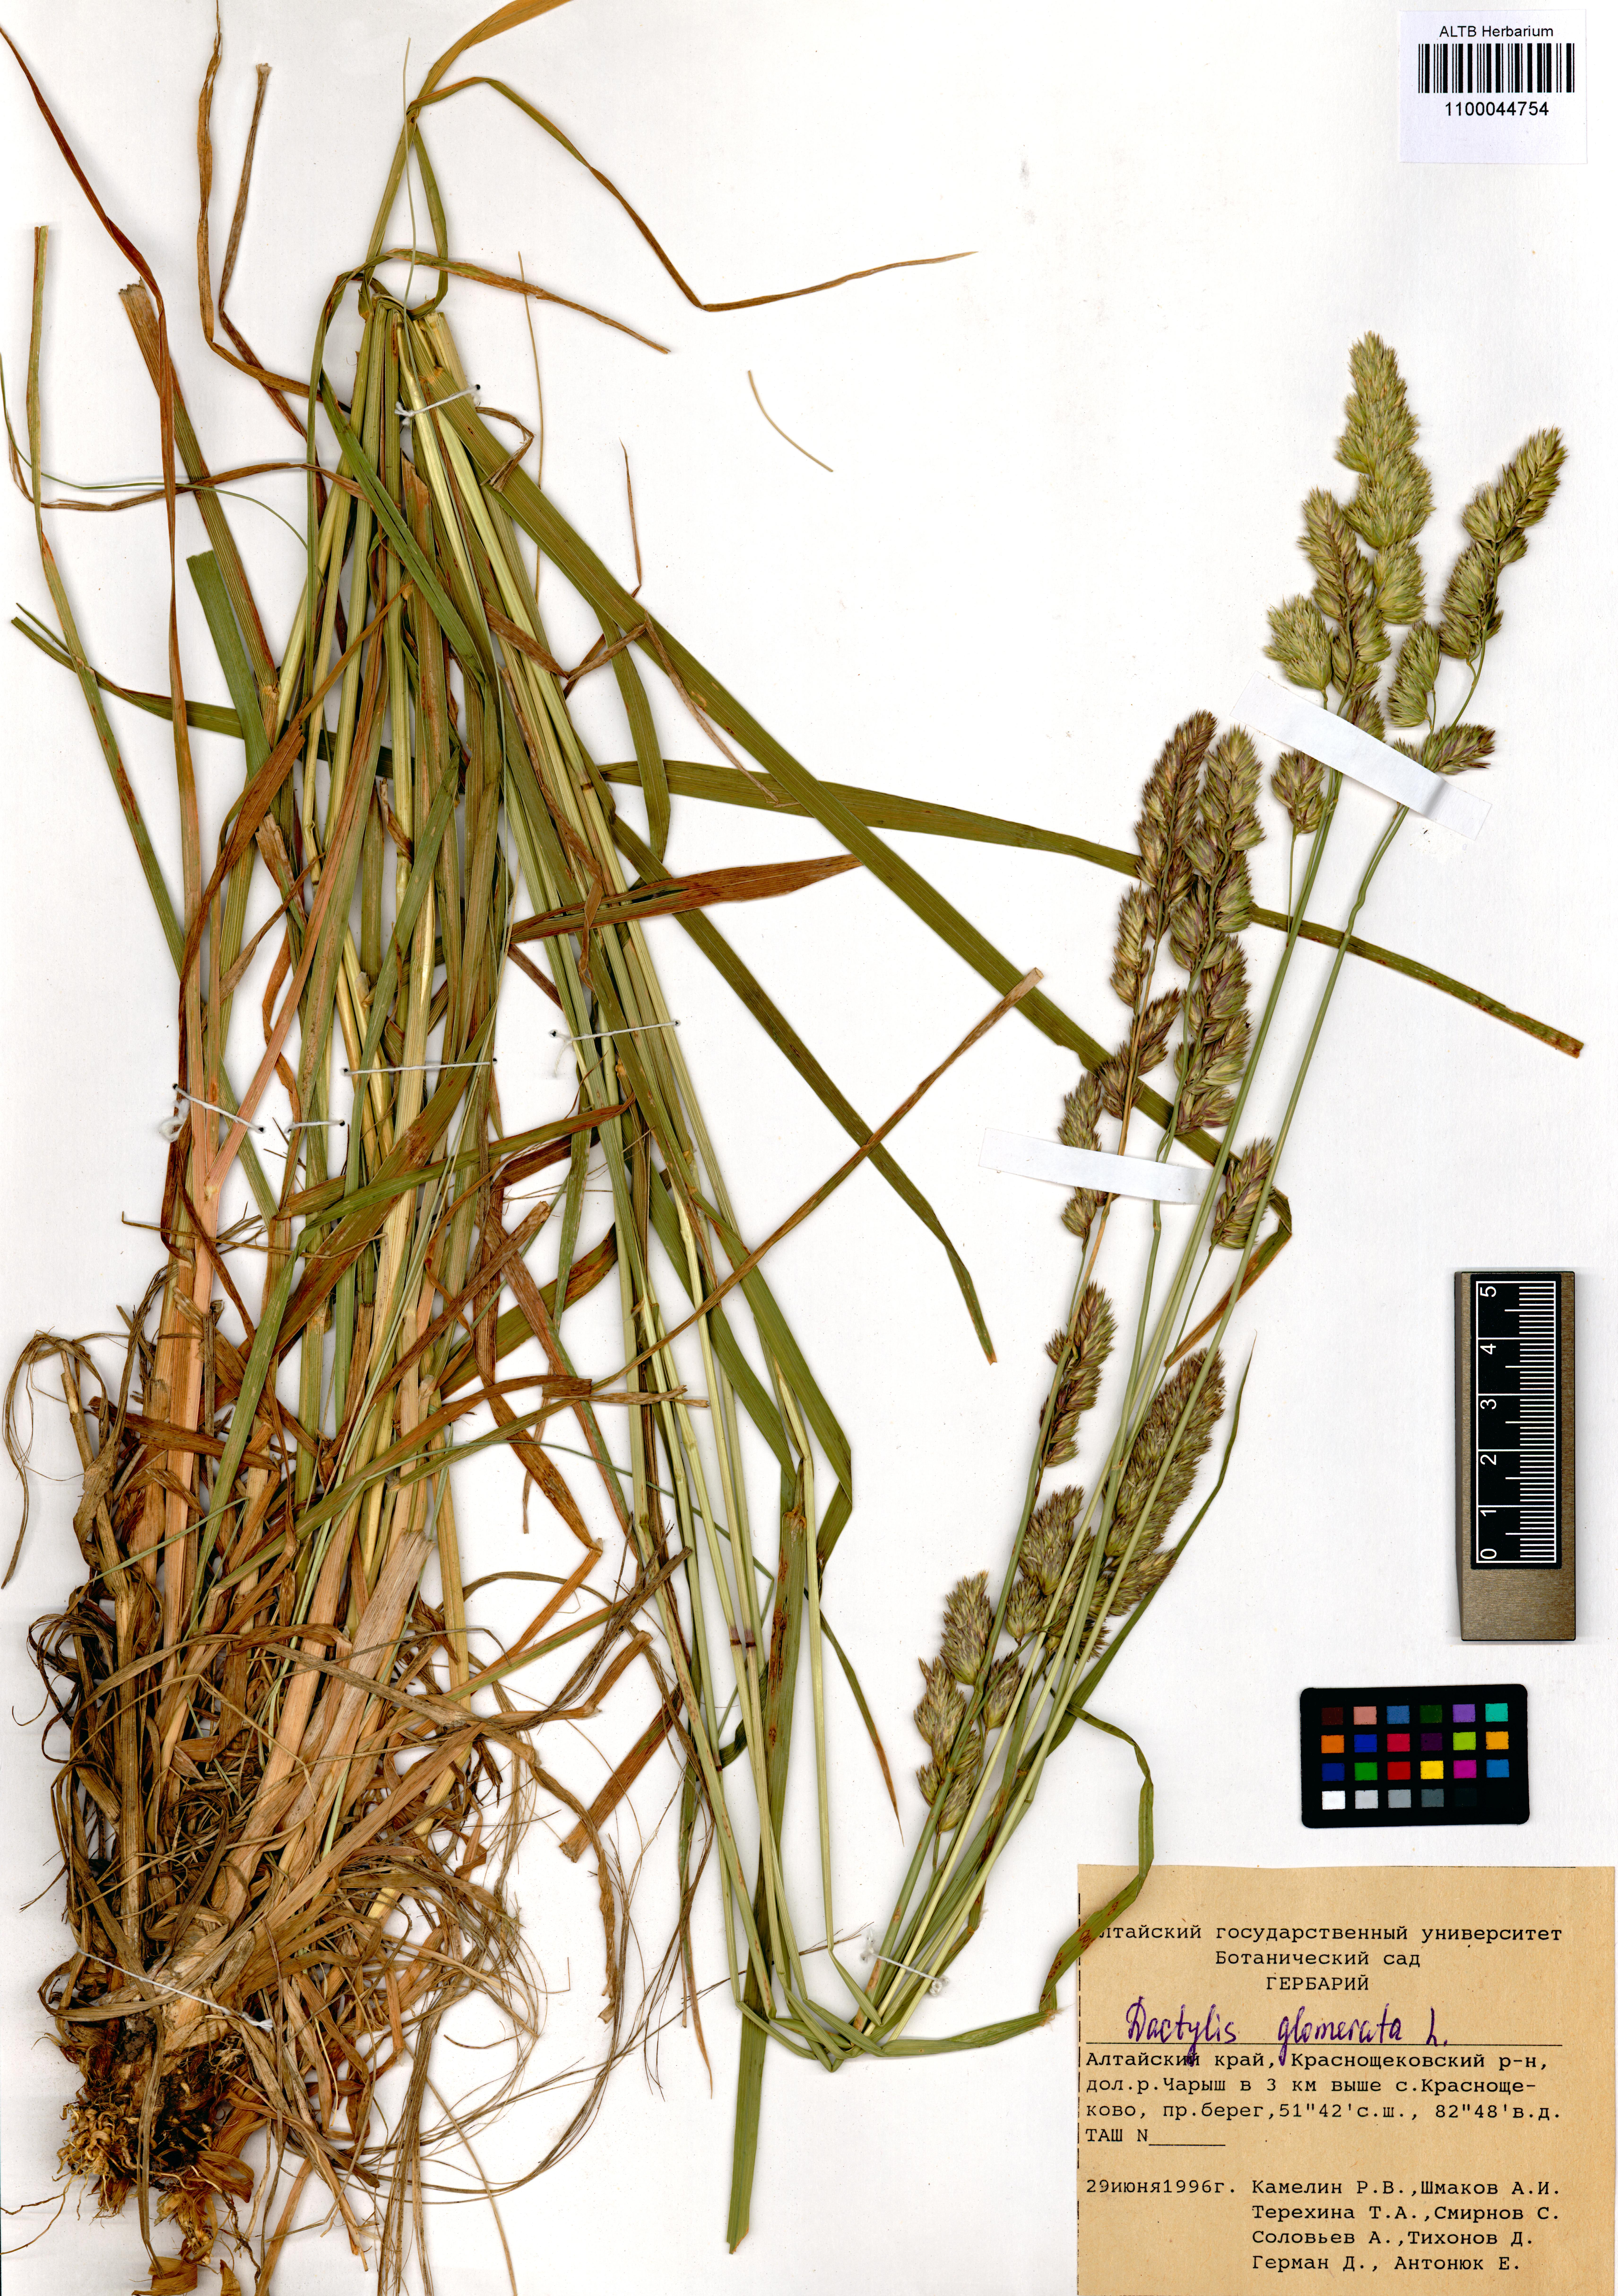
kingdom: Plantae
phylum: Tracheophyta
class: Liliopsida
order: Poales
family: Poaceae
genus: Dactylis
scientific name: Dactylis glomerata
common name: Orchardgrass
